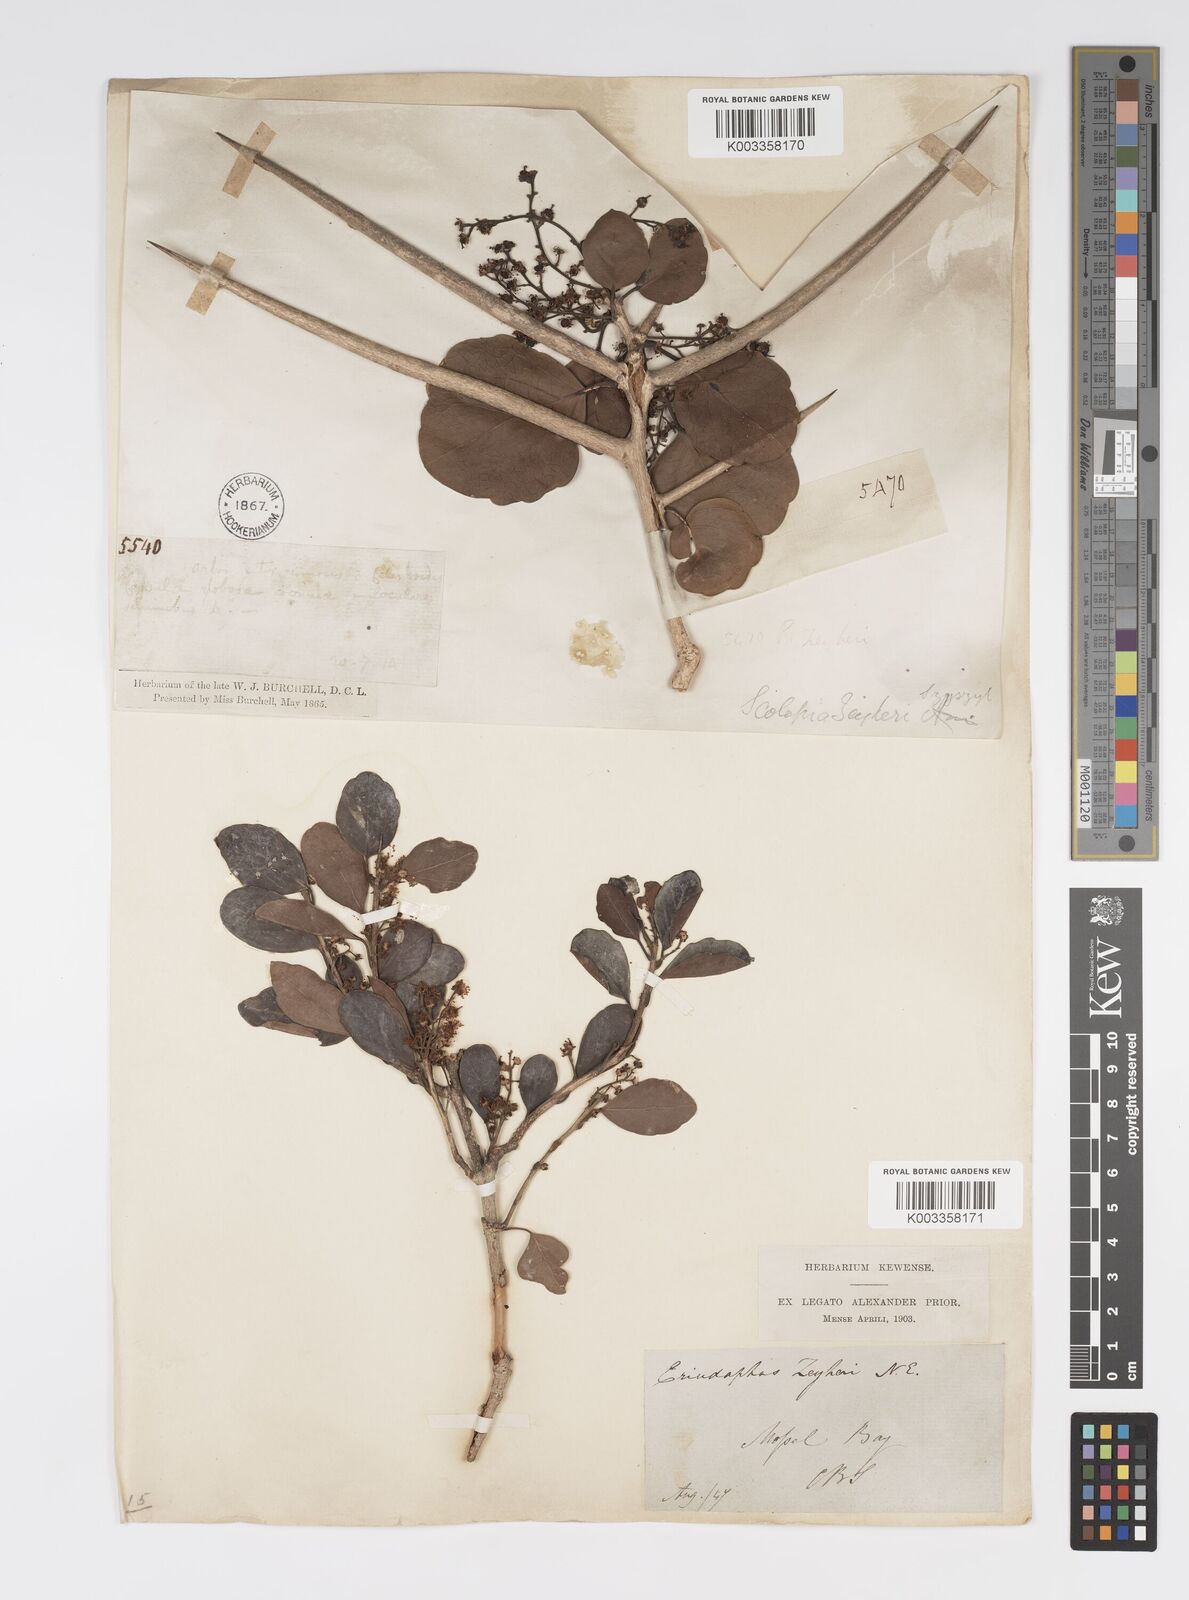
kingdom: Plantae
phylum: Tracheophyta
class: Magnoliopsida
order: Malpighiales
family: Salicaceae
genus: Scolopia
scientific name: Scolopia zeyheri
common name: Thorn pear
